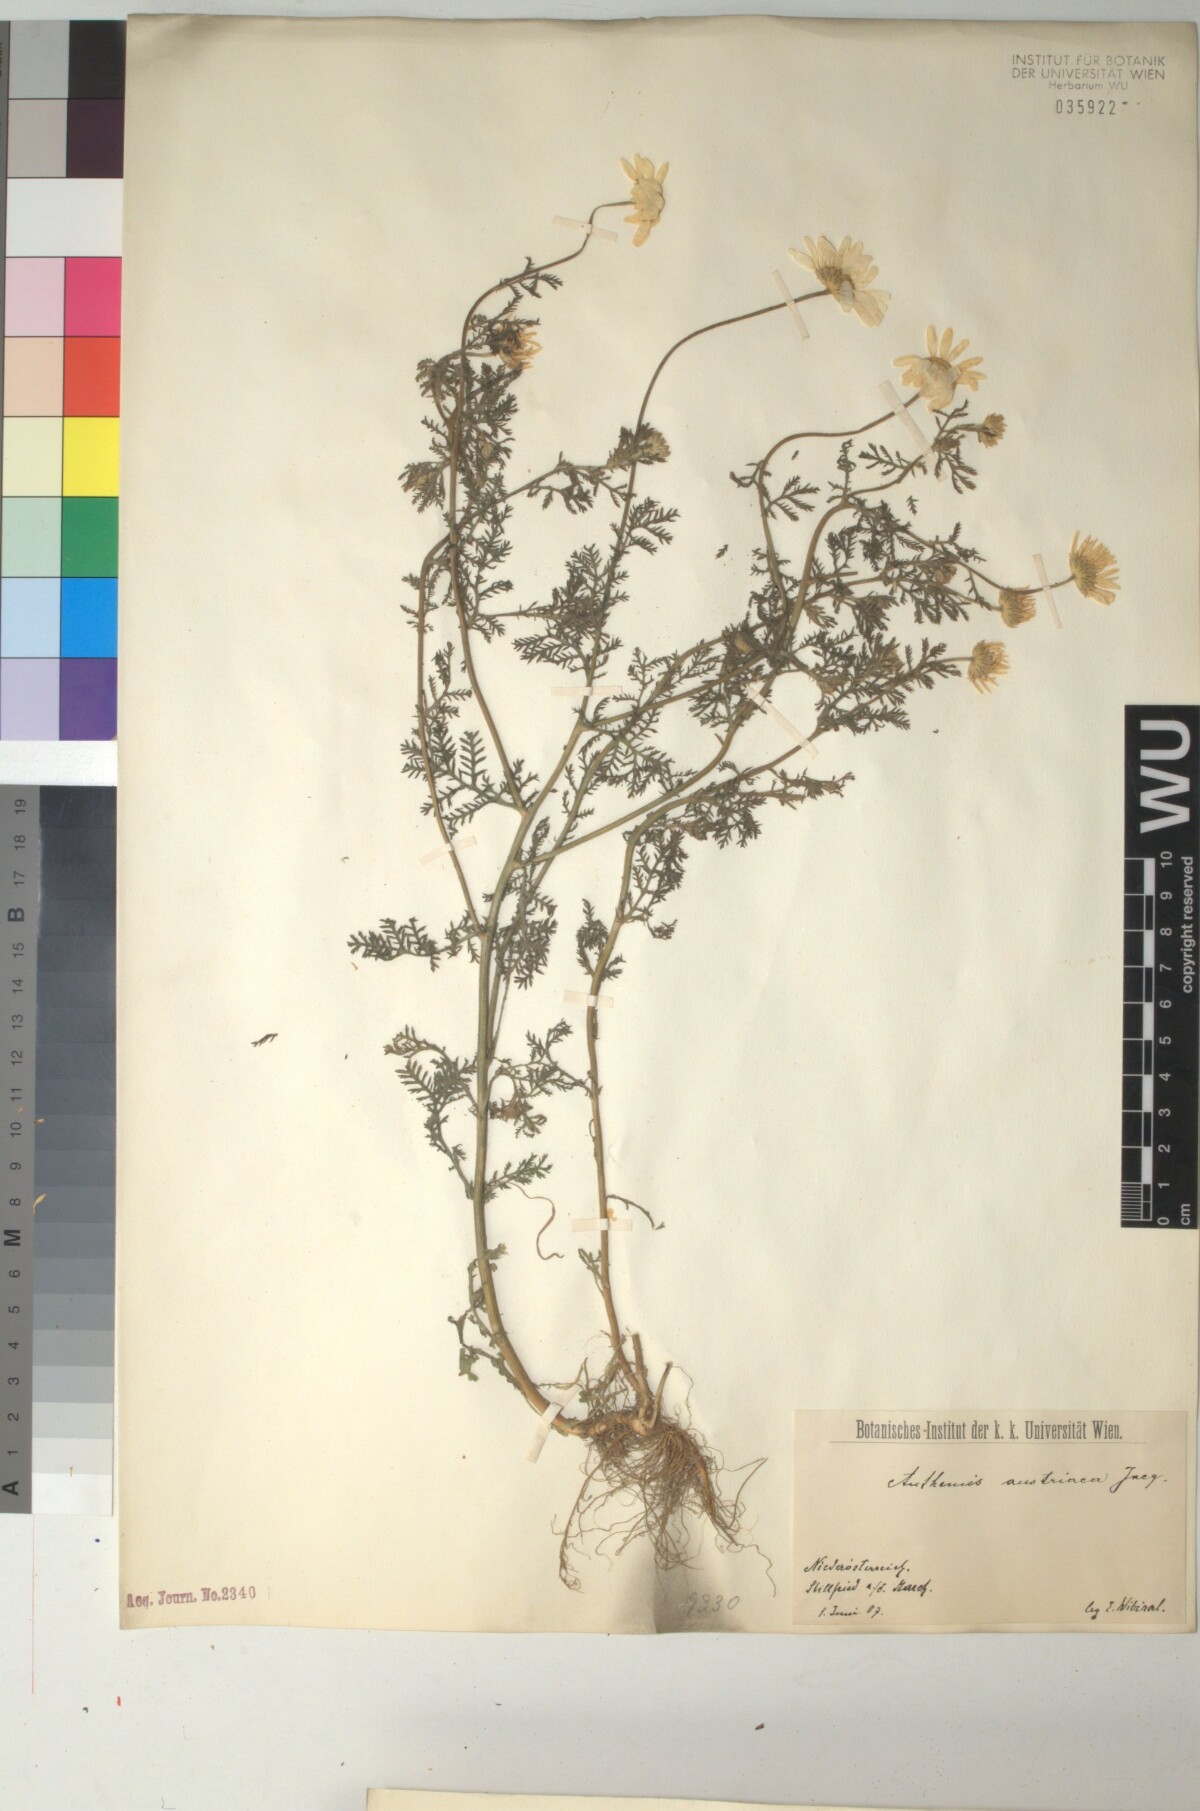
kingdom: Plantae
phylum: Tracheophyta
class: Magnoliopsida
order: Asterales
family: Asteraceae
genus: Cota
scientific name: Cota austriaca
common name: Austrian chamomile
